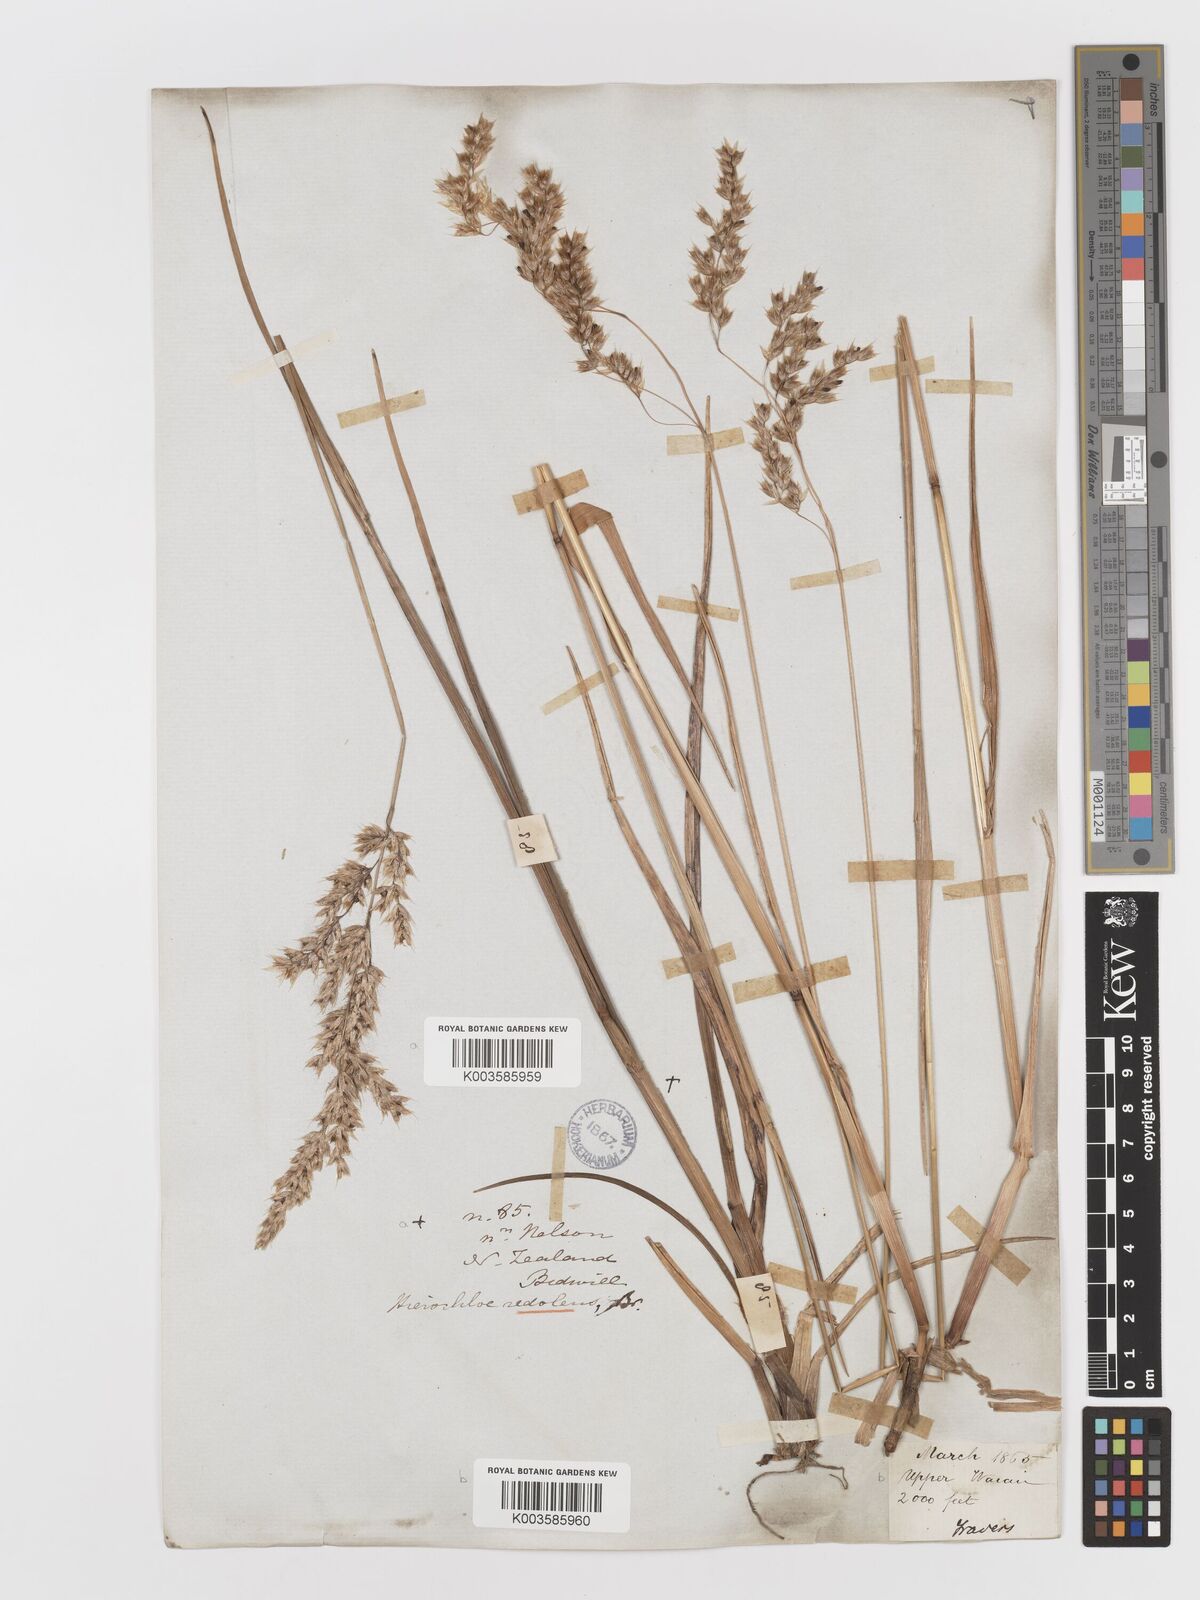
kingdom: Plantae
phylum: Tracheophyta
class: Liliopsida
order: Poales
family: Poaceae
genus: Anthoxanthum
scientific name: Anthoxanthum redolens
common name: Sweet holy grass
